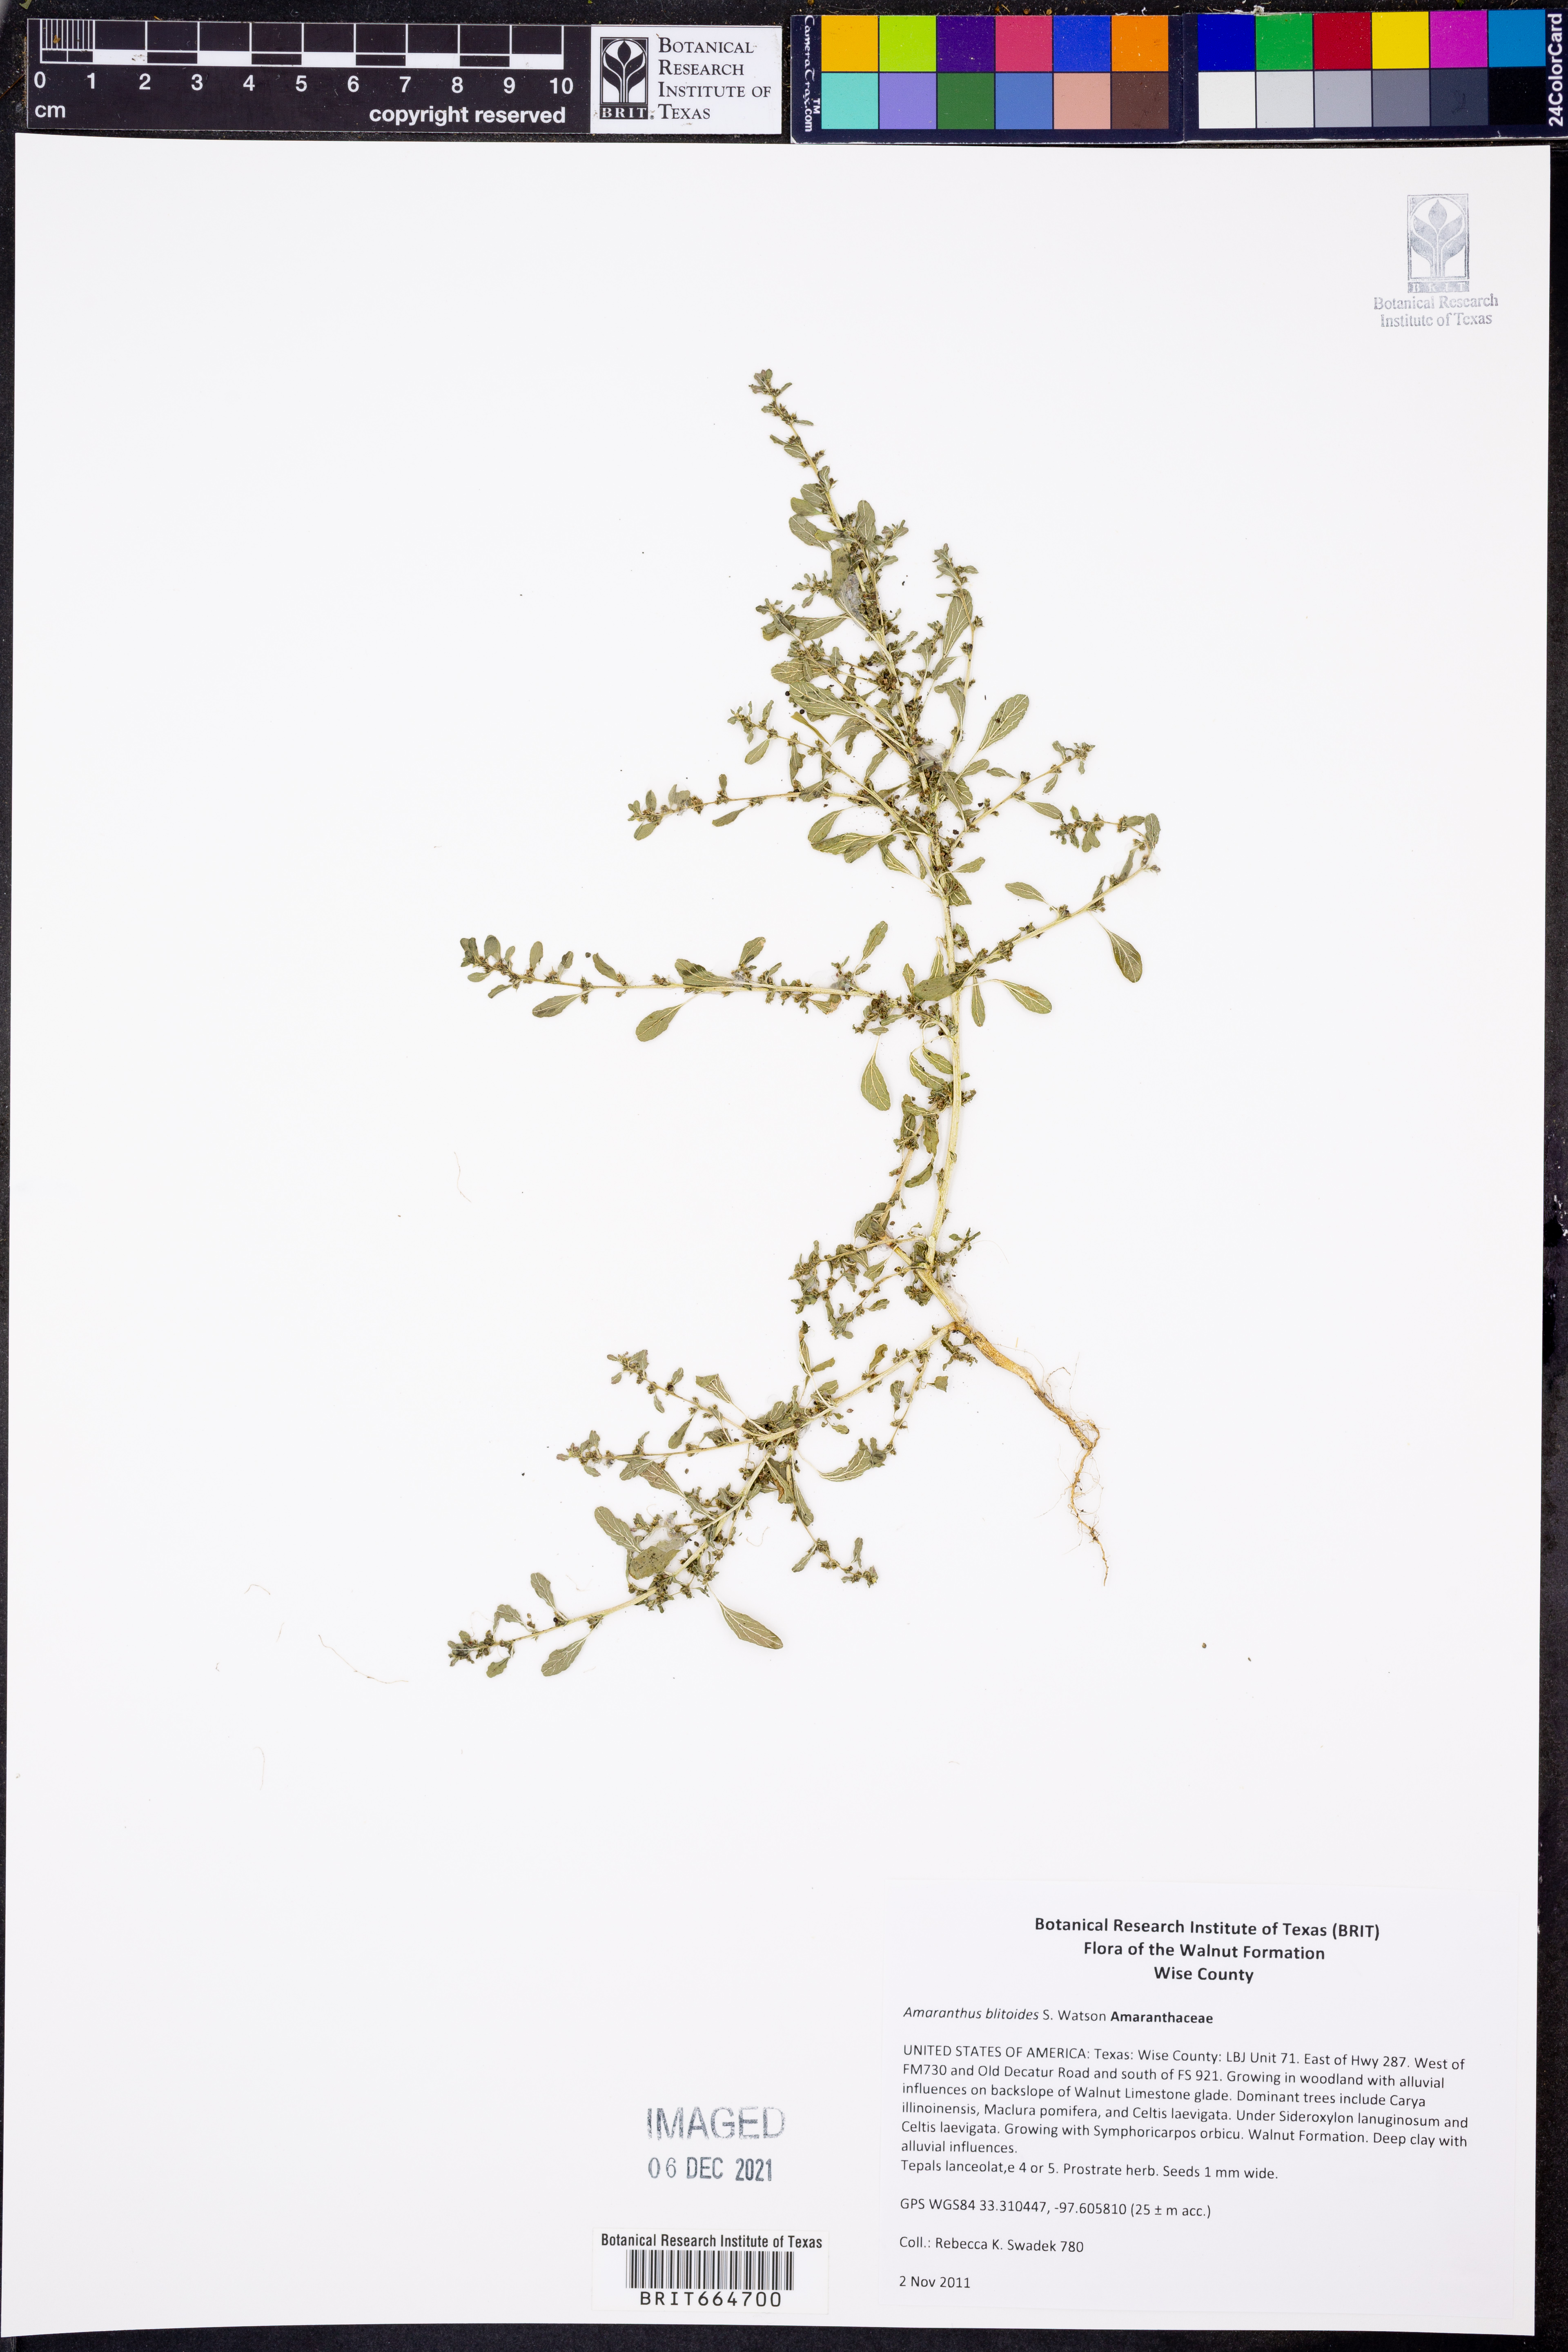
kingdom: Plantae
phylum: Tracheophyta
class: Magnoliopsida
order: Caryophyllales
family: Amaranthaceae
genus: Amaranthus
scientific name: Amaranthus blitoides
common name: Prostrate pigweed
